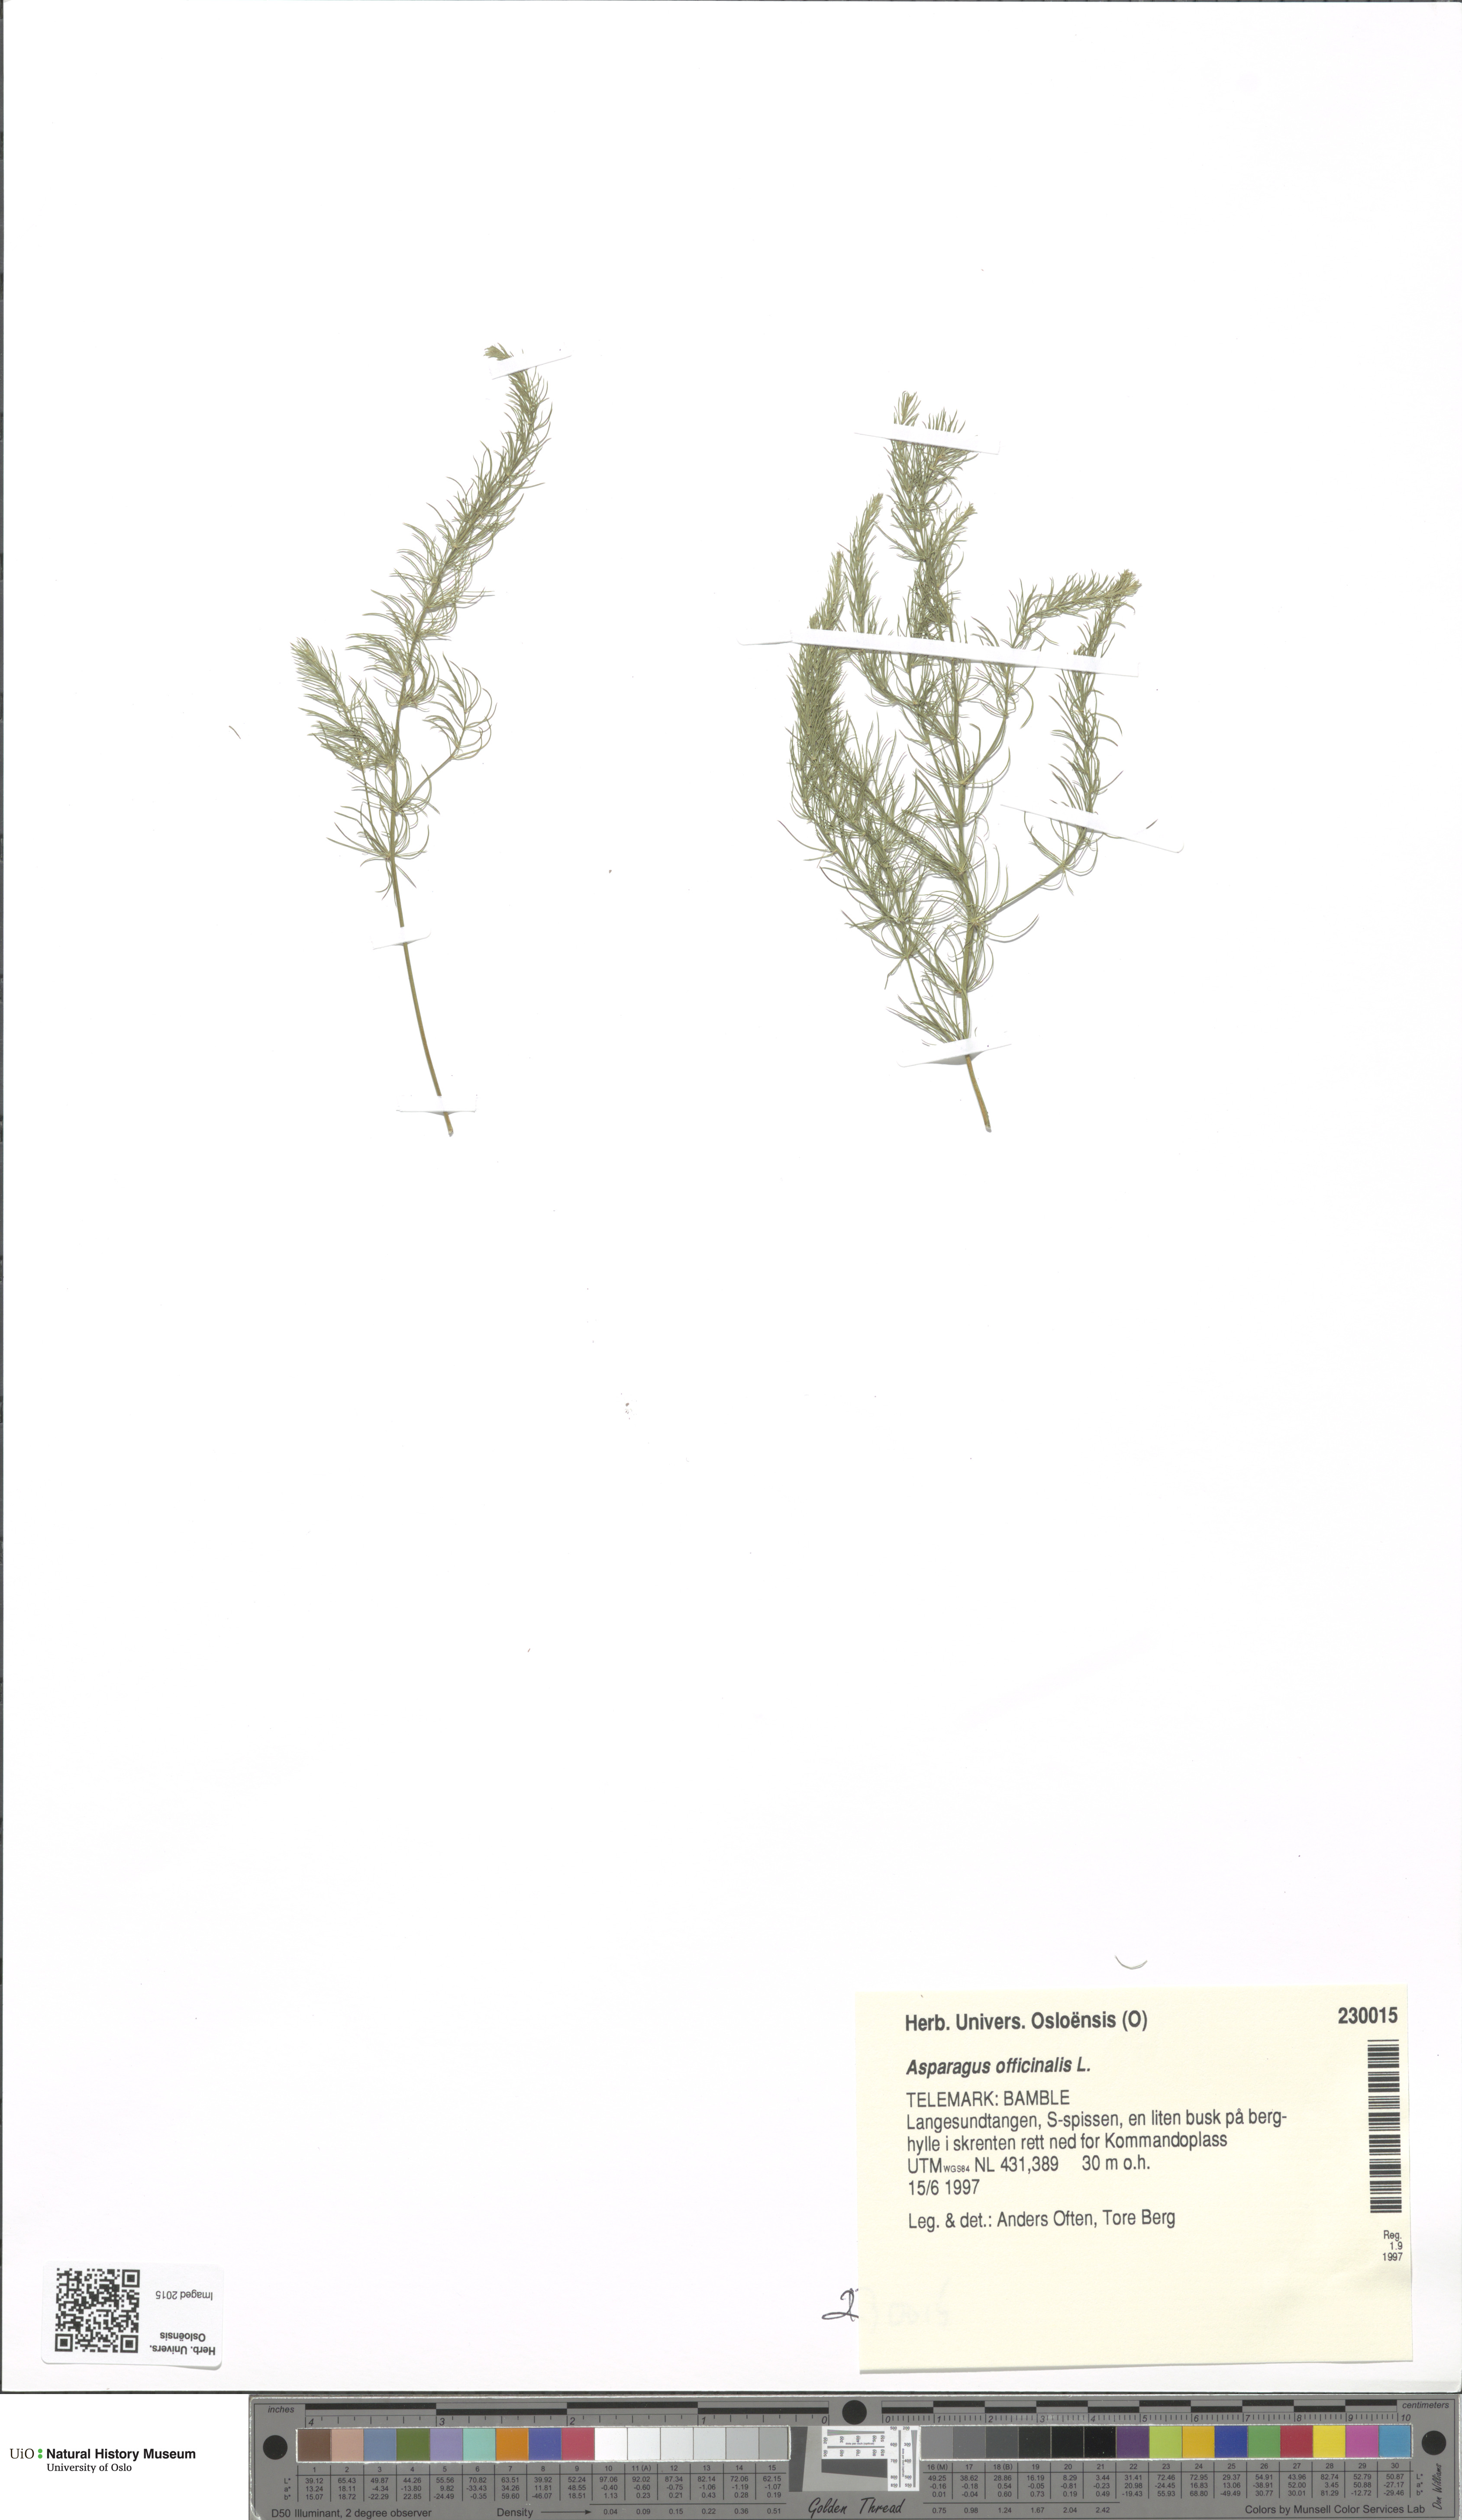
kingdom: Plantae
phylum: Tracheophyta
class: Liliopsida
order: Asparagales
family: Asparagaceae
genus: Asparagus
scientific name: Asparagus officinalis
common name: Garden asparagus
